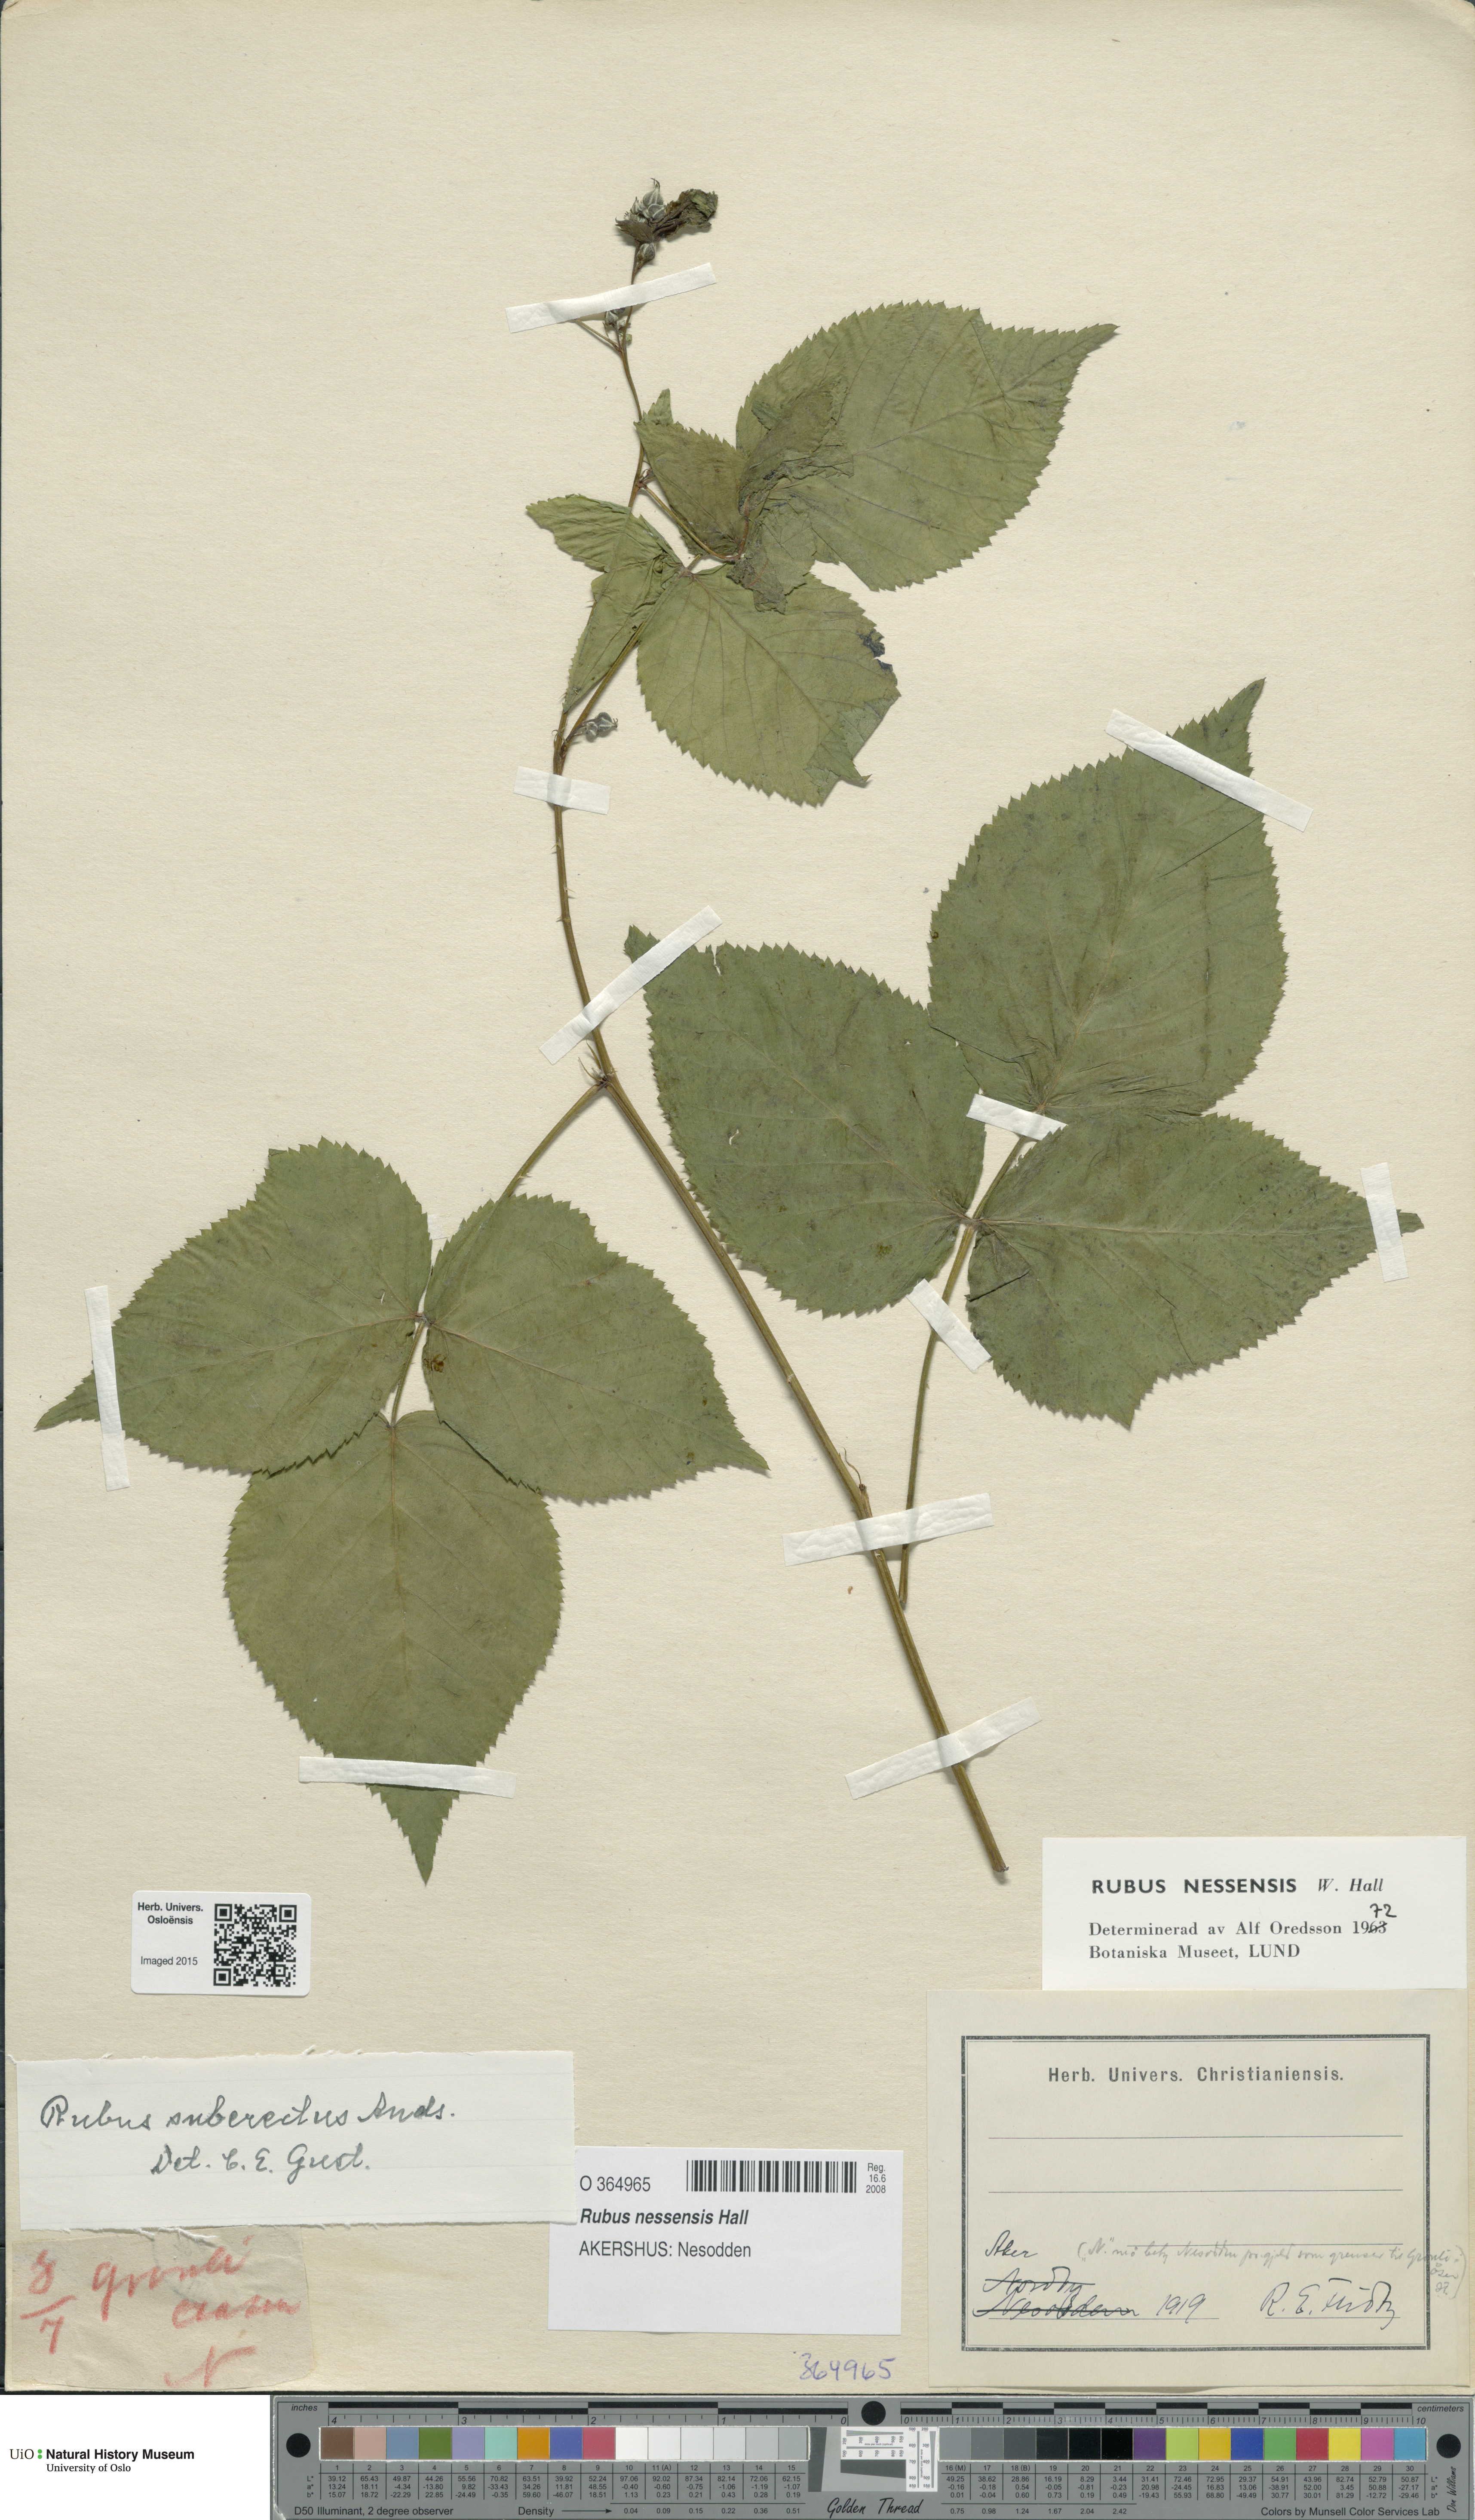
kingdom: Plantae
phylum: Tracheophyta
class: Magnoliopsida
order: Rosales
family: Rosaceae
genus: Rubus
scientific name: Rubus polonicus
